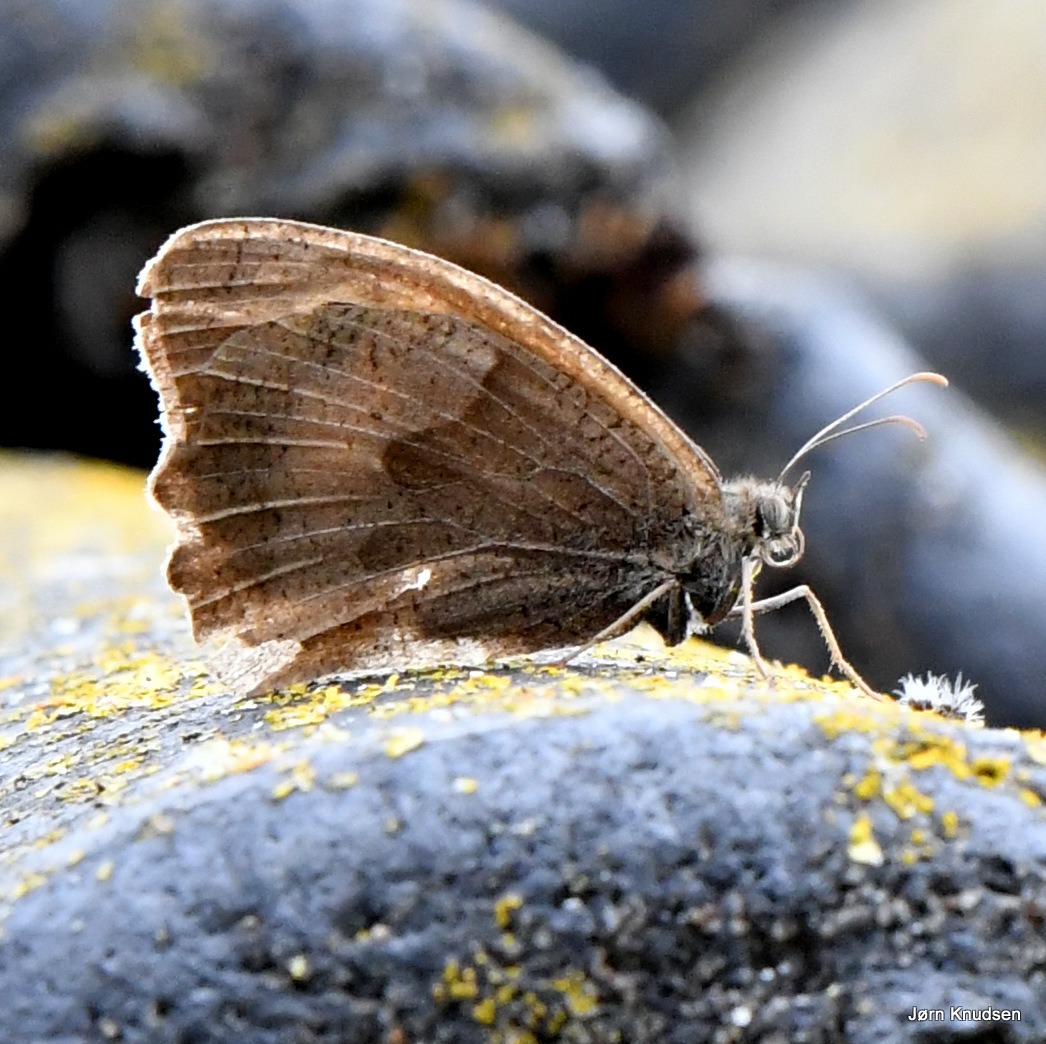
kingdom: Animalia
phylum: Arthropoda
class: Insecta
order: Lepidoptera
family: Nymphalidae
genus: Maniola
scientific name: Maniola jurtina
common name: Græsrandøje
